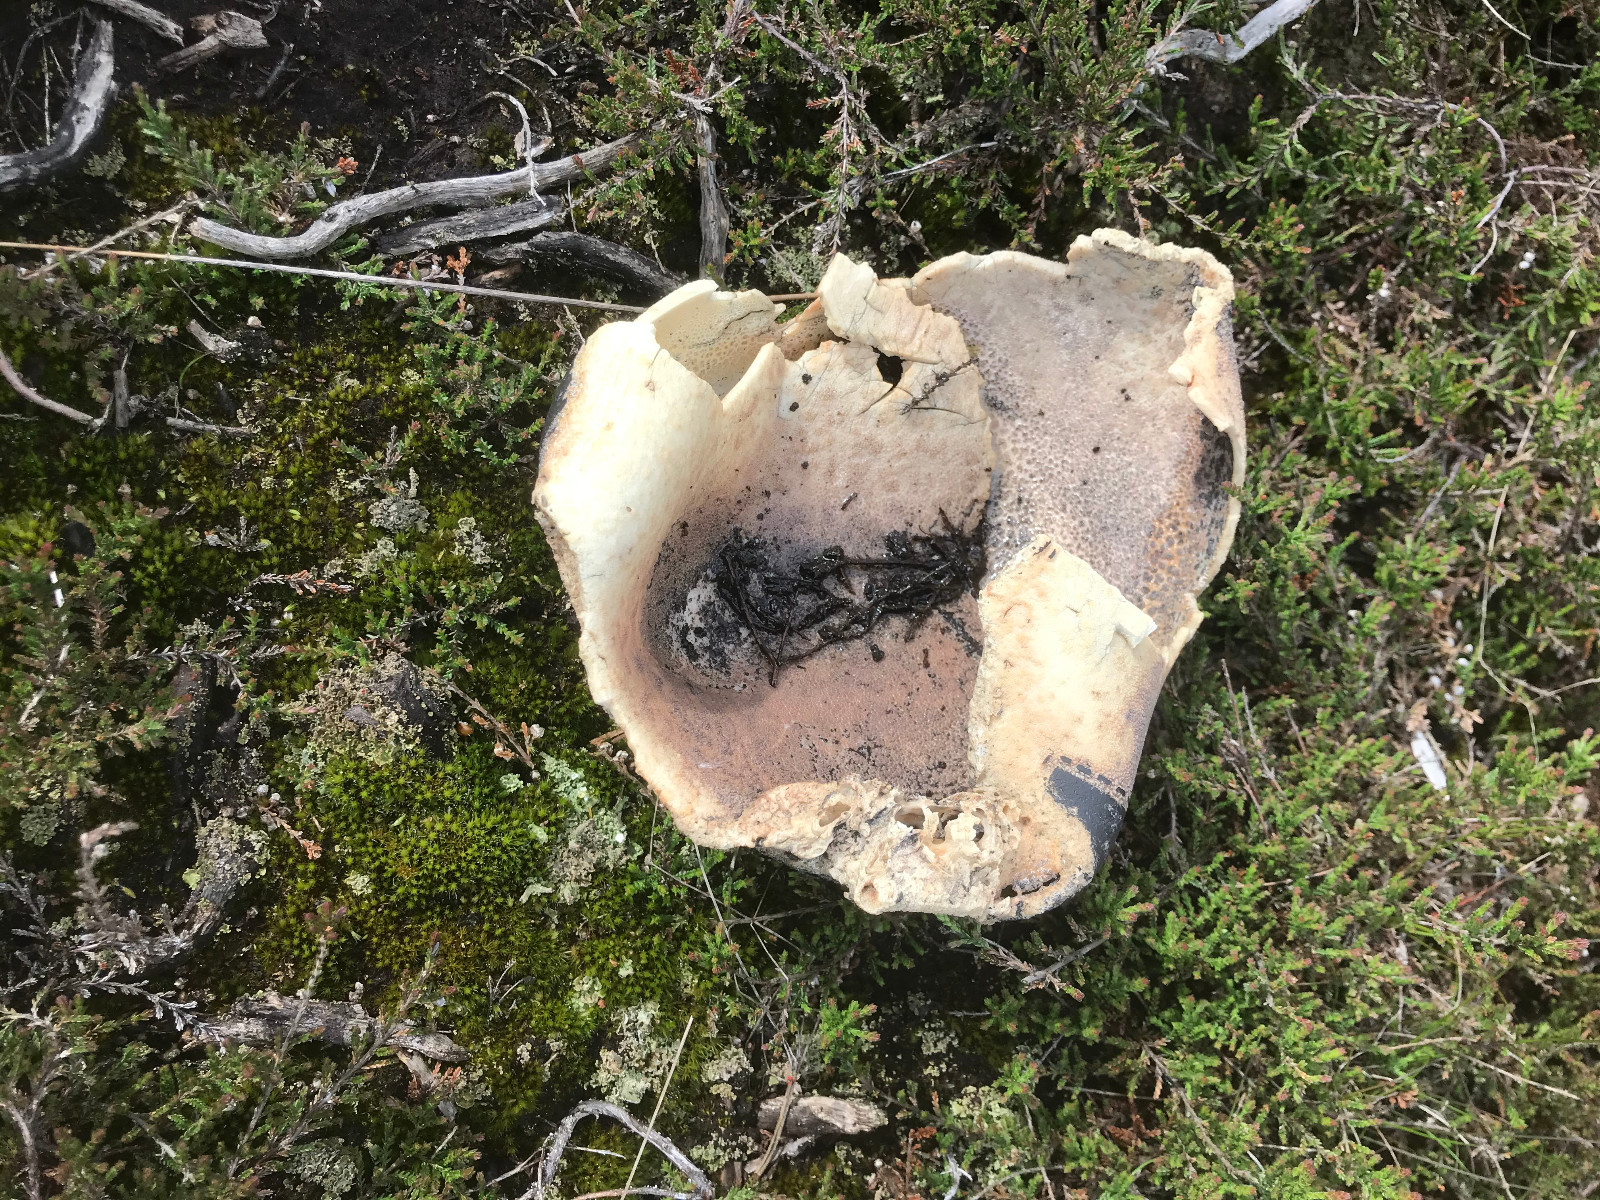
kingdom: Fungi
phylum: Basidiomycota
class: Agaricomycetes
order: Agaricales
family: Lycoperdaceae
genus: Bovistella
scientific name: Bovistella utriformis
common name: skællet støvbold
